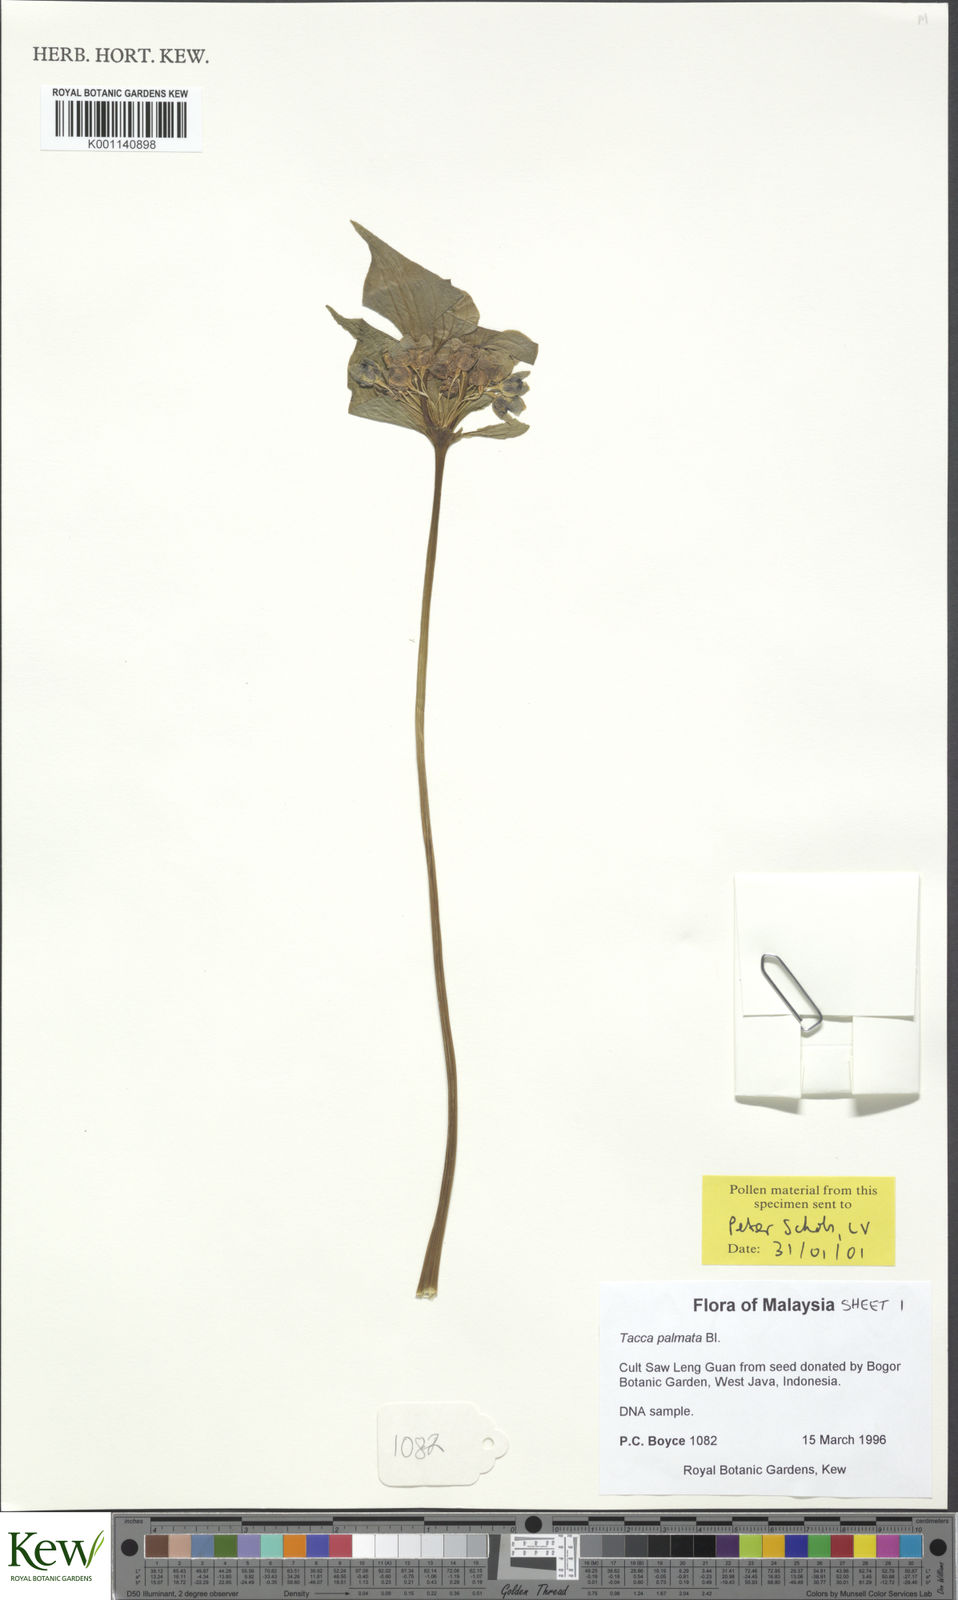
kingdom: Plantae
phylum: Tracheophyta
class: Liliopsida
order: Dioscoreales
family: Dioscoreaceae
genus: Tacca
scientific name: Tacca palmata
